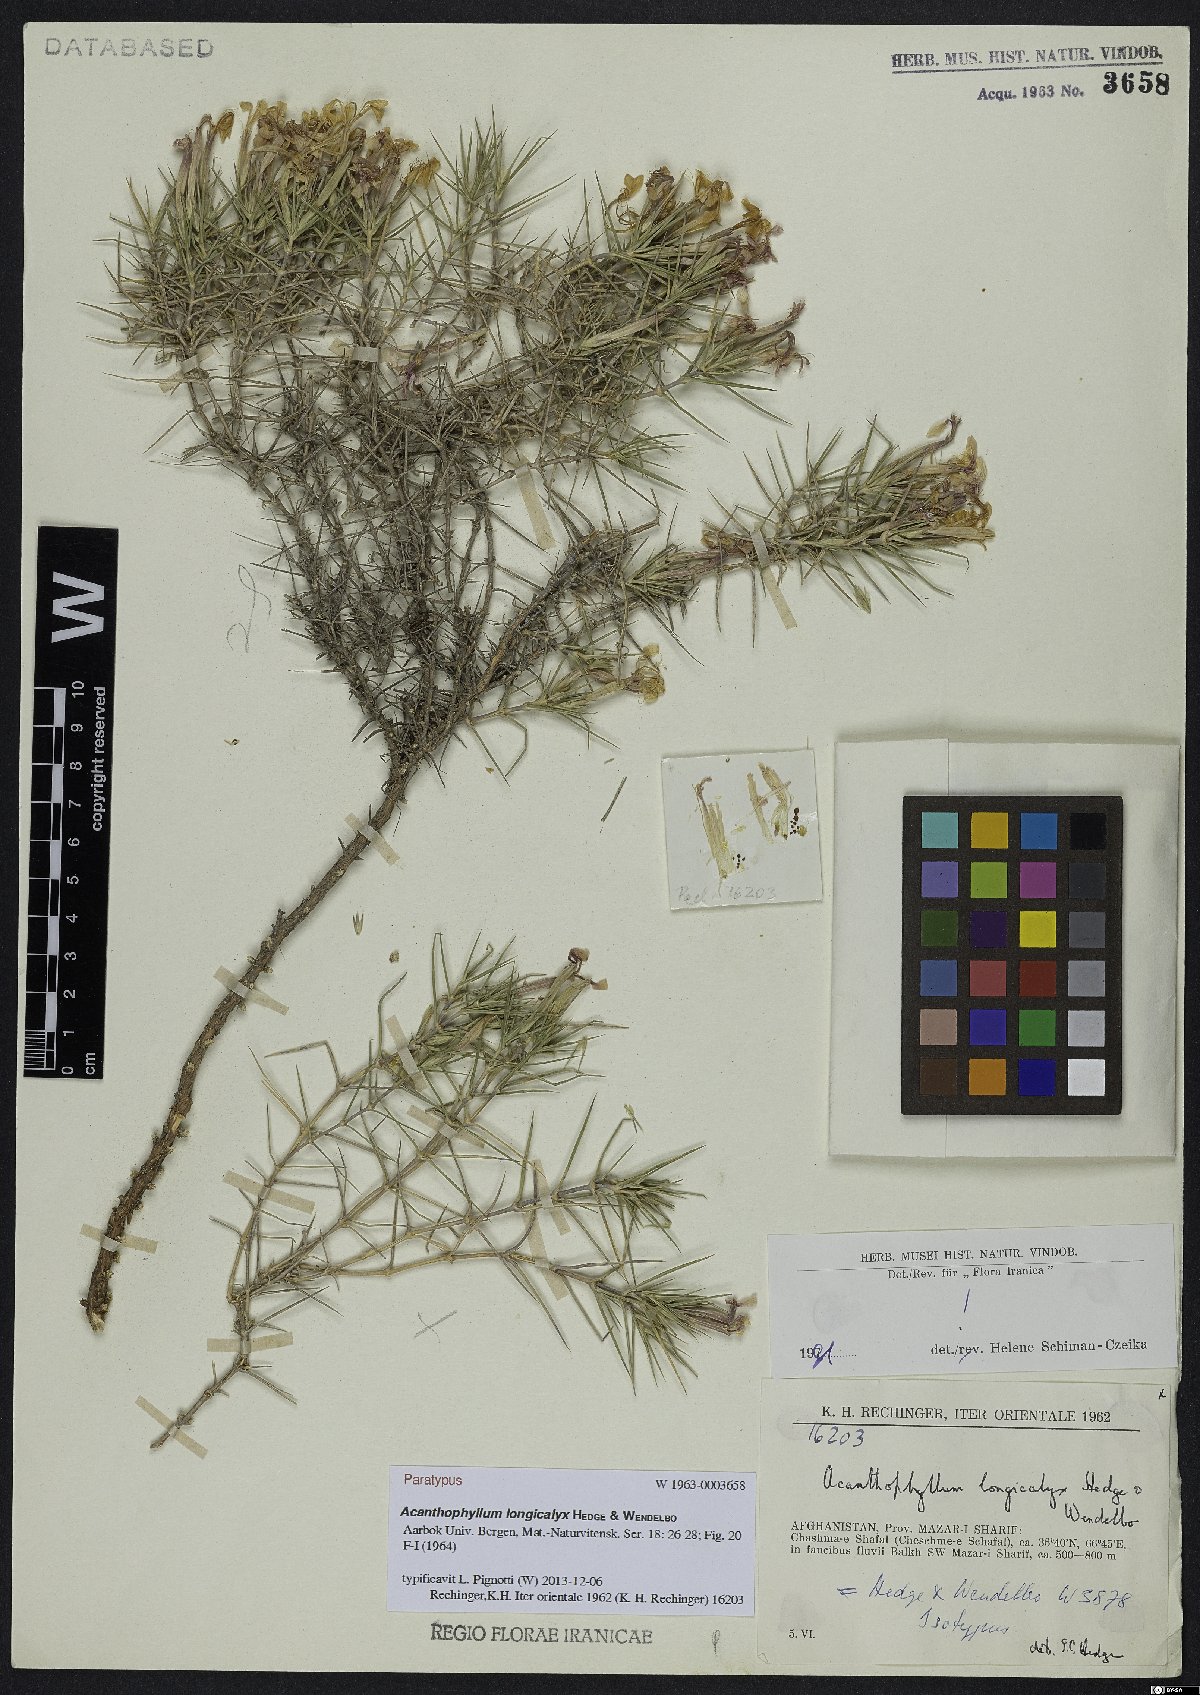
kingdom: Plantae
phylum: Tracheophyta
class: Magnoliopsida
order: Caryophyllales
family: Caryophyllaceae
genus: Acanthophyllum
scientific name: Acanthophyllum longicalyx
